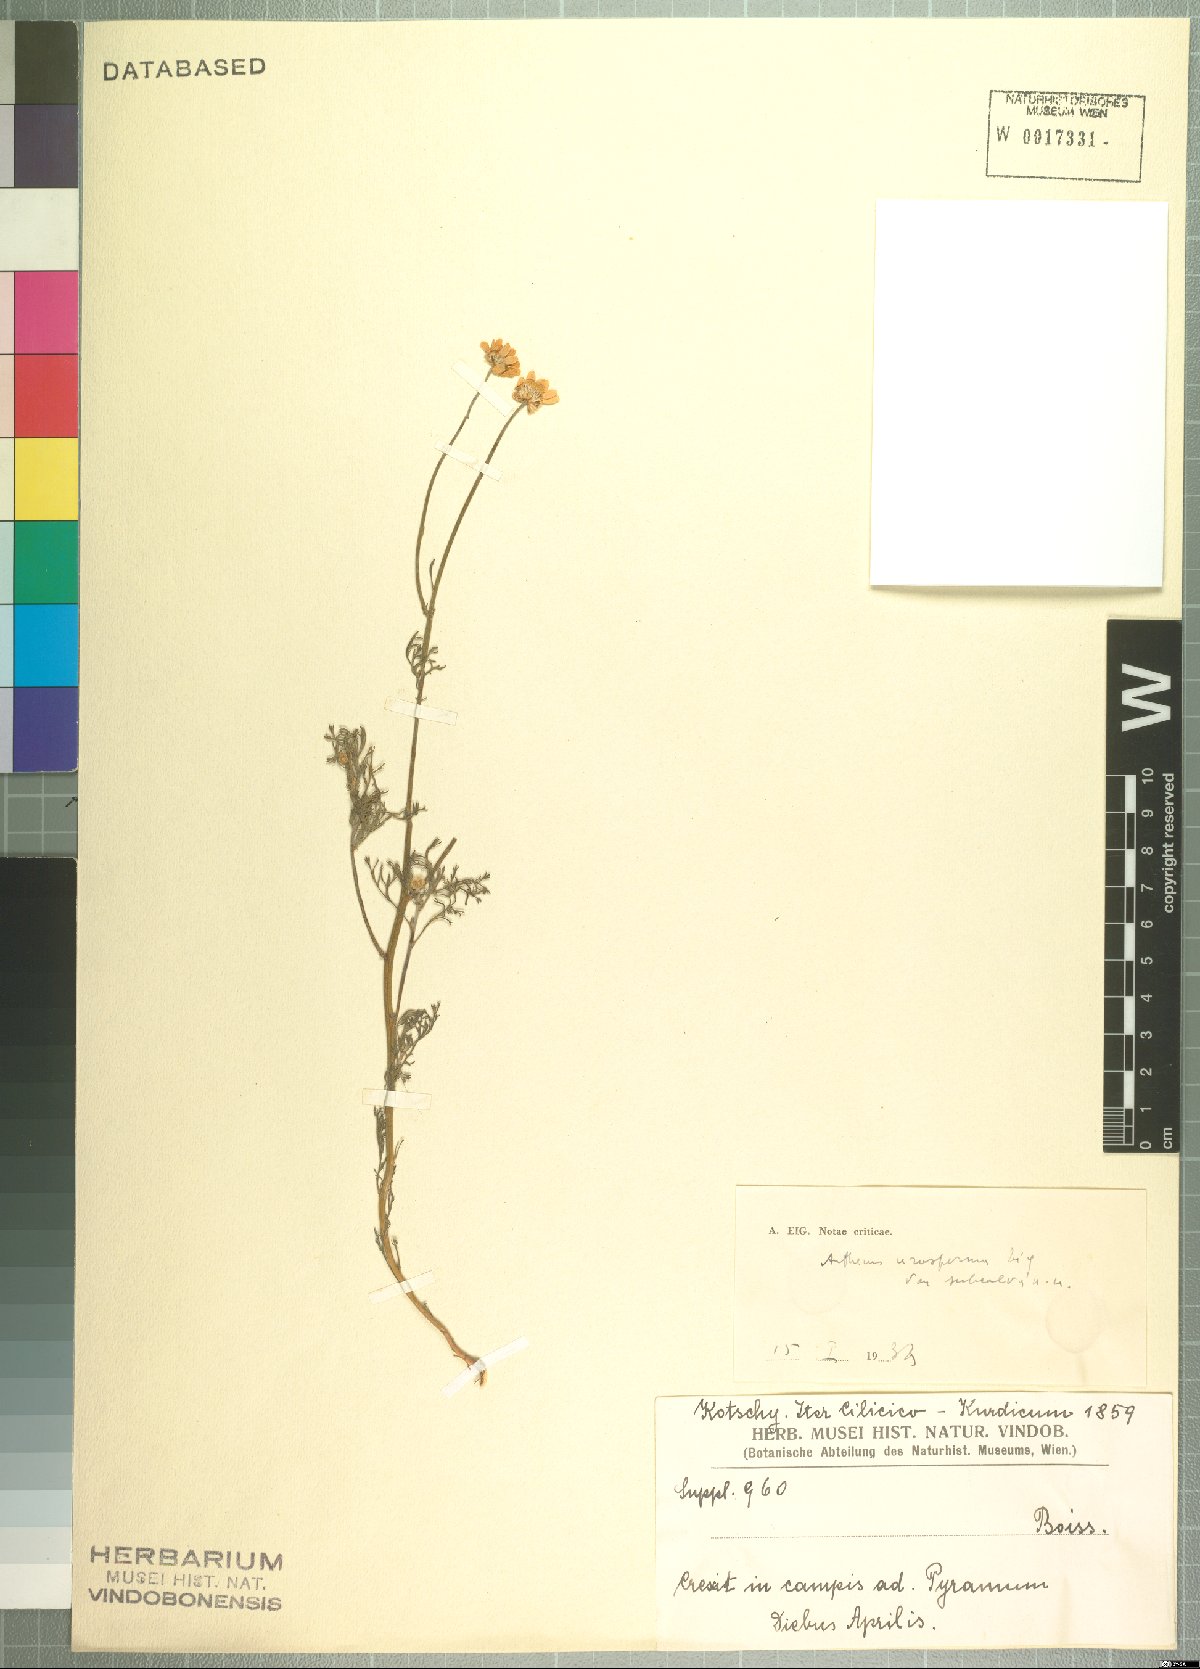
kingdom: Plantae
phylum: Tracheophyta
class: Magnoliopsida
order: Asterales
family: Asteraceae
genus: Anthemis
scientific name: Anthemis arenicola
